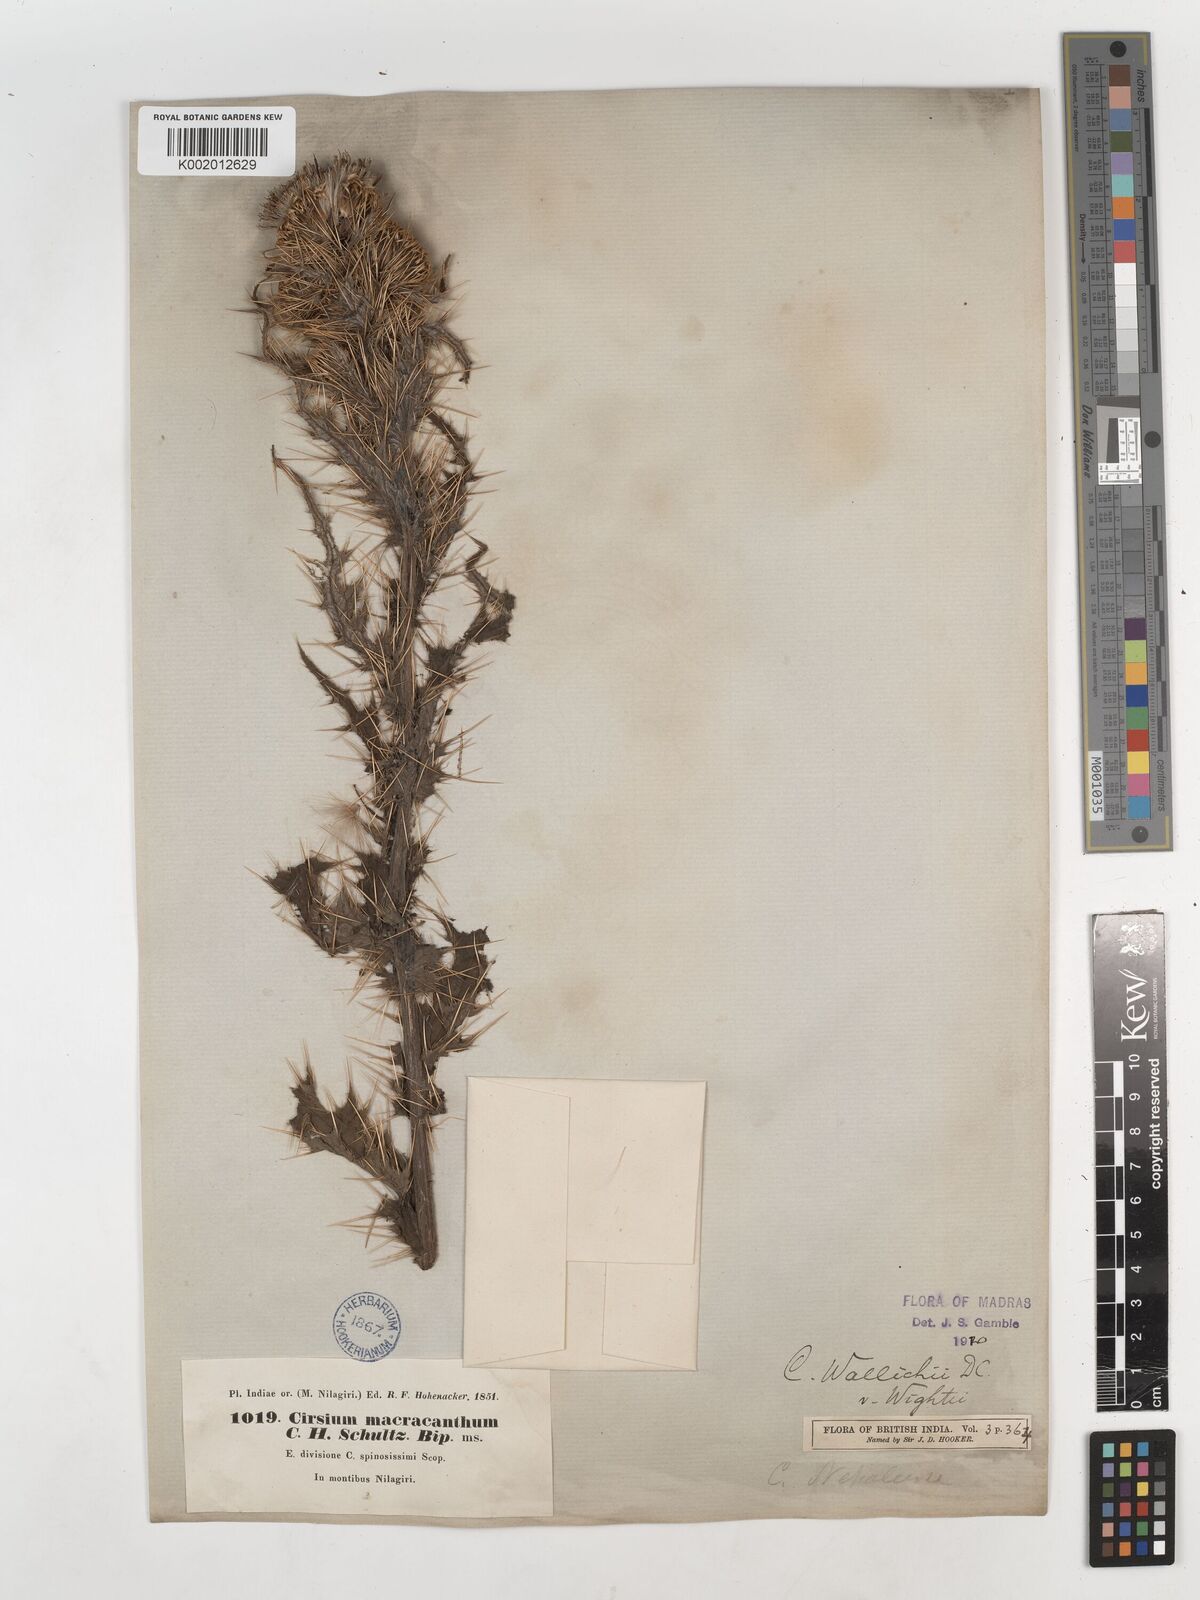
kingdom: Plantae
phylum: Tracheophyta
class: Magnoliopsida
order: Asterales
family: Asteraceae
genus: Cirsium
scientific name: Cirsium wallichii
